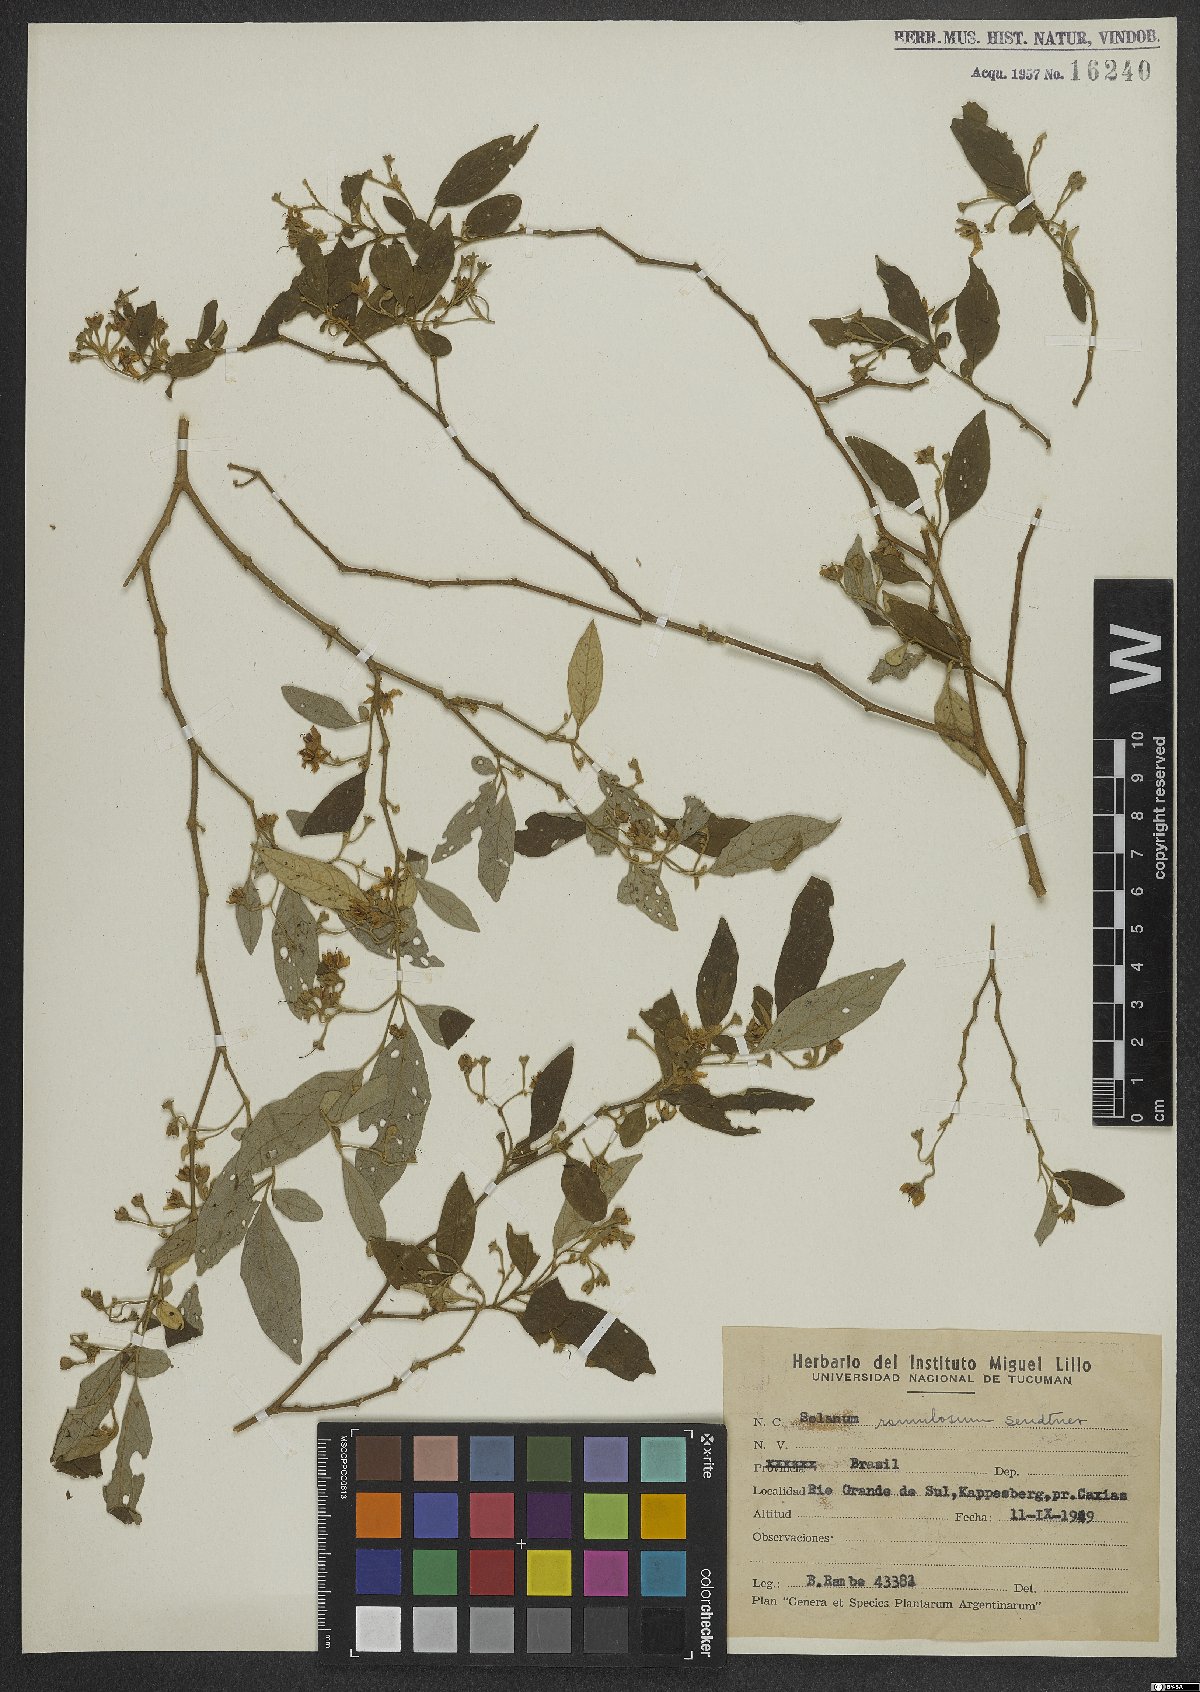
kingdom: Plantae
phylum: Tracheophyta
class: Magnoliopsida
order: Solanales
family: Solanaceae
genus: Solanum
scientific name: Solanum ramulosum
